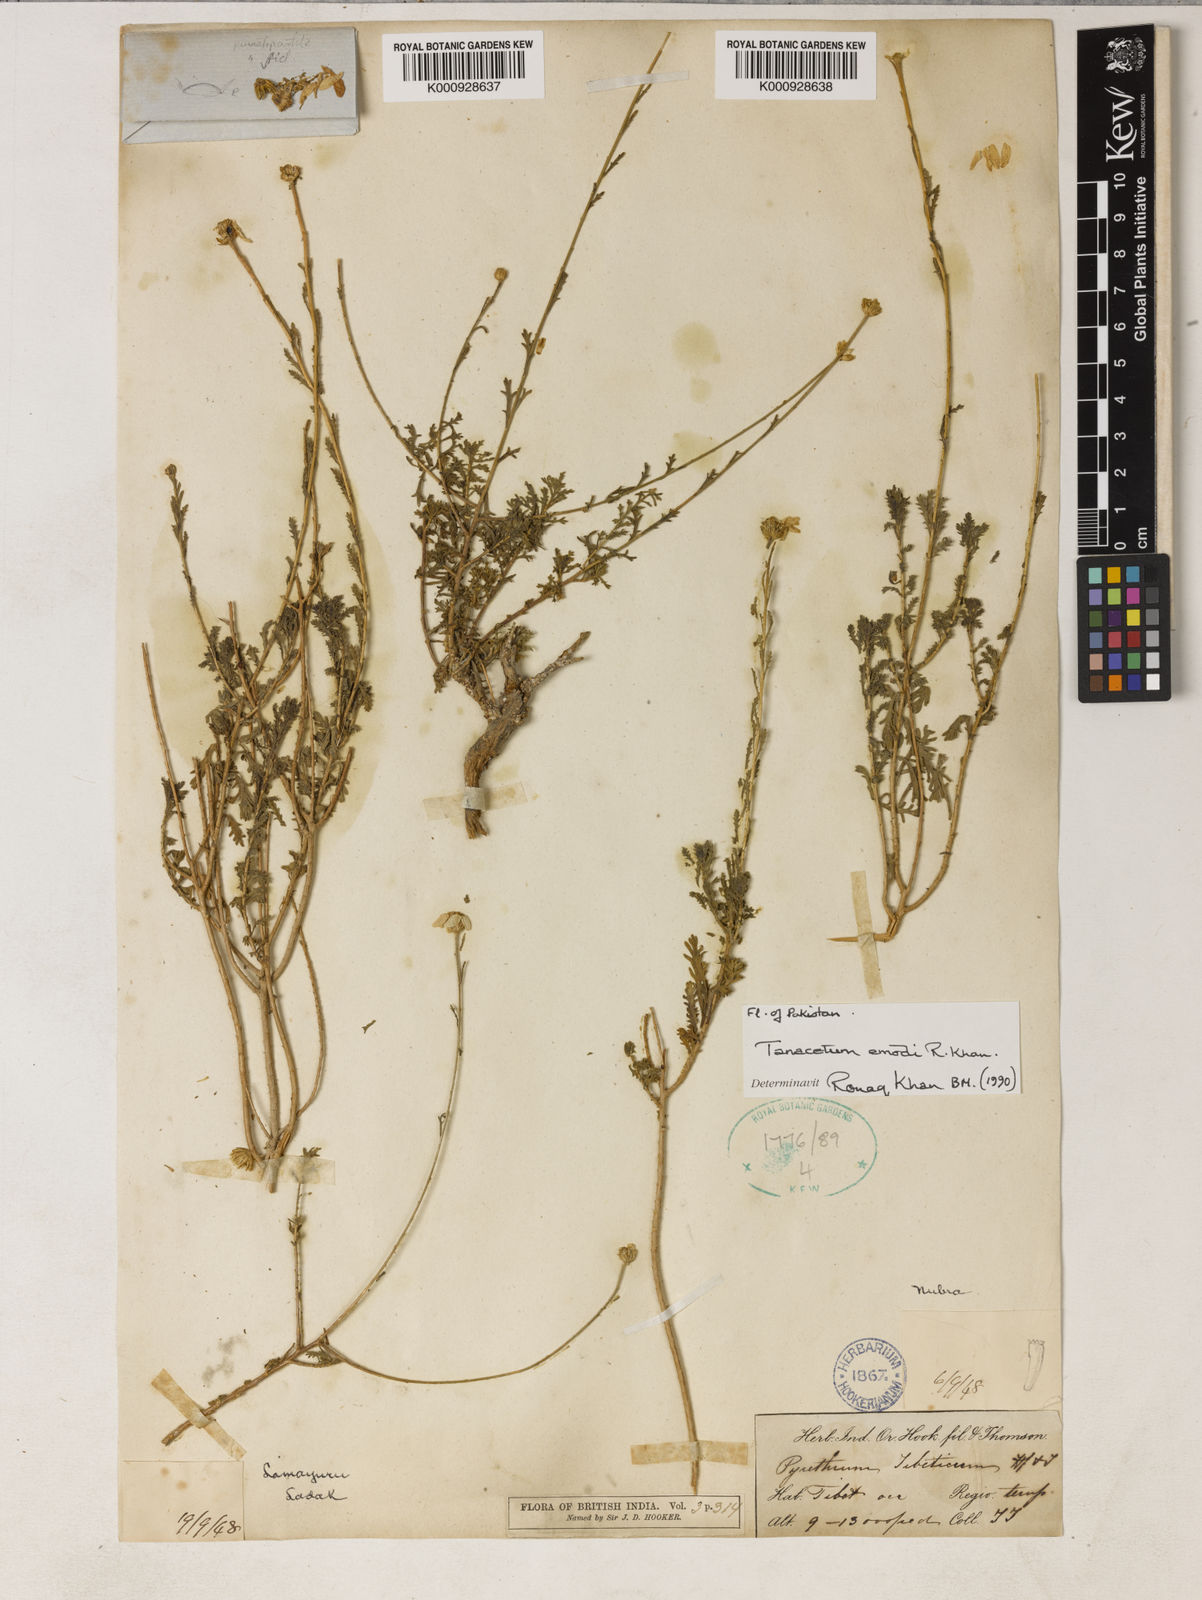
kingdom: Plantae
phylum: Tracheophyta
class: Magnoliopsida
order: Asterales
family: Asteraceae
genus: Tanacetum
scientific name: Tanacetum emodi
